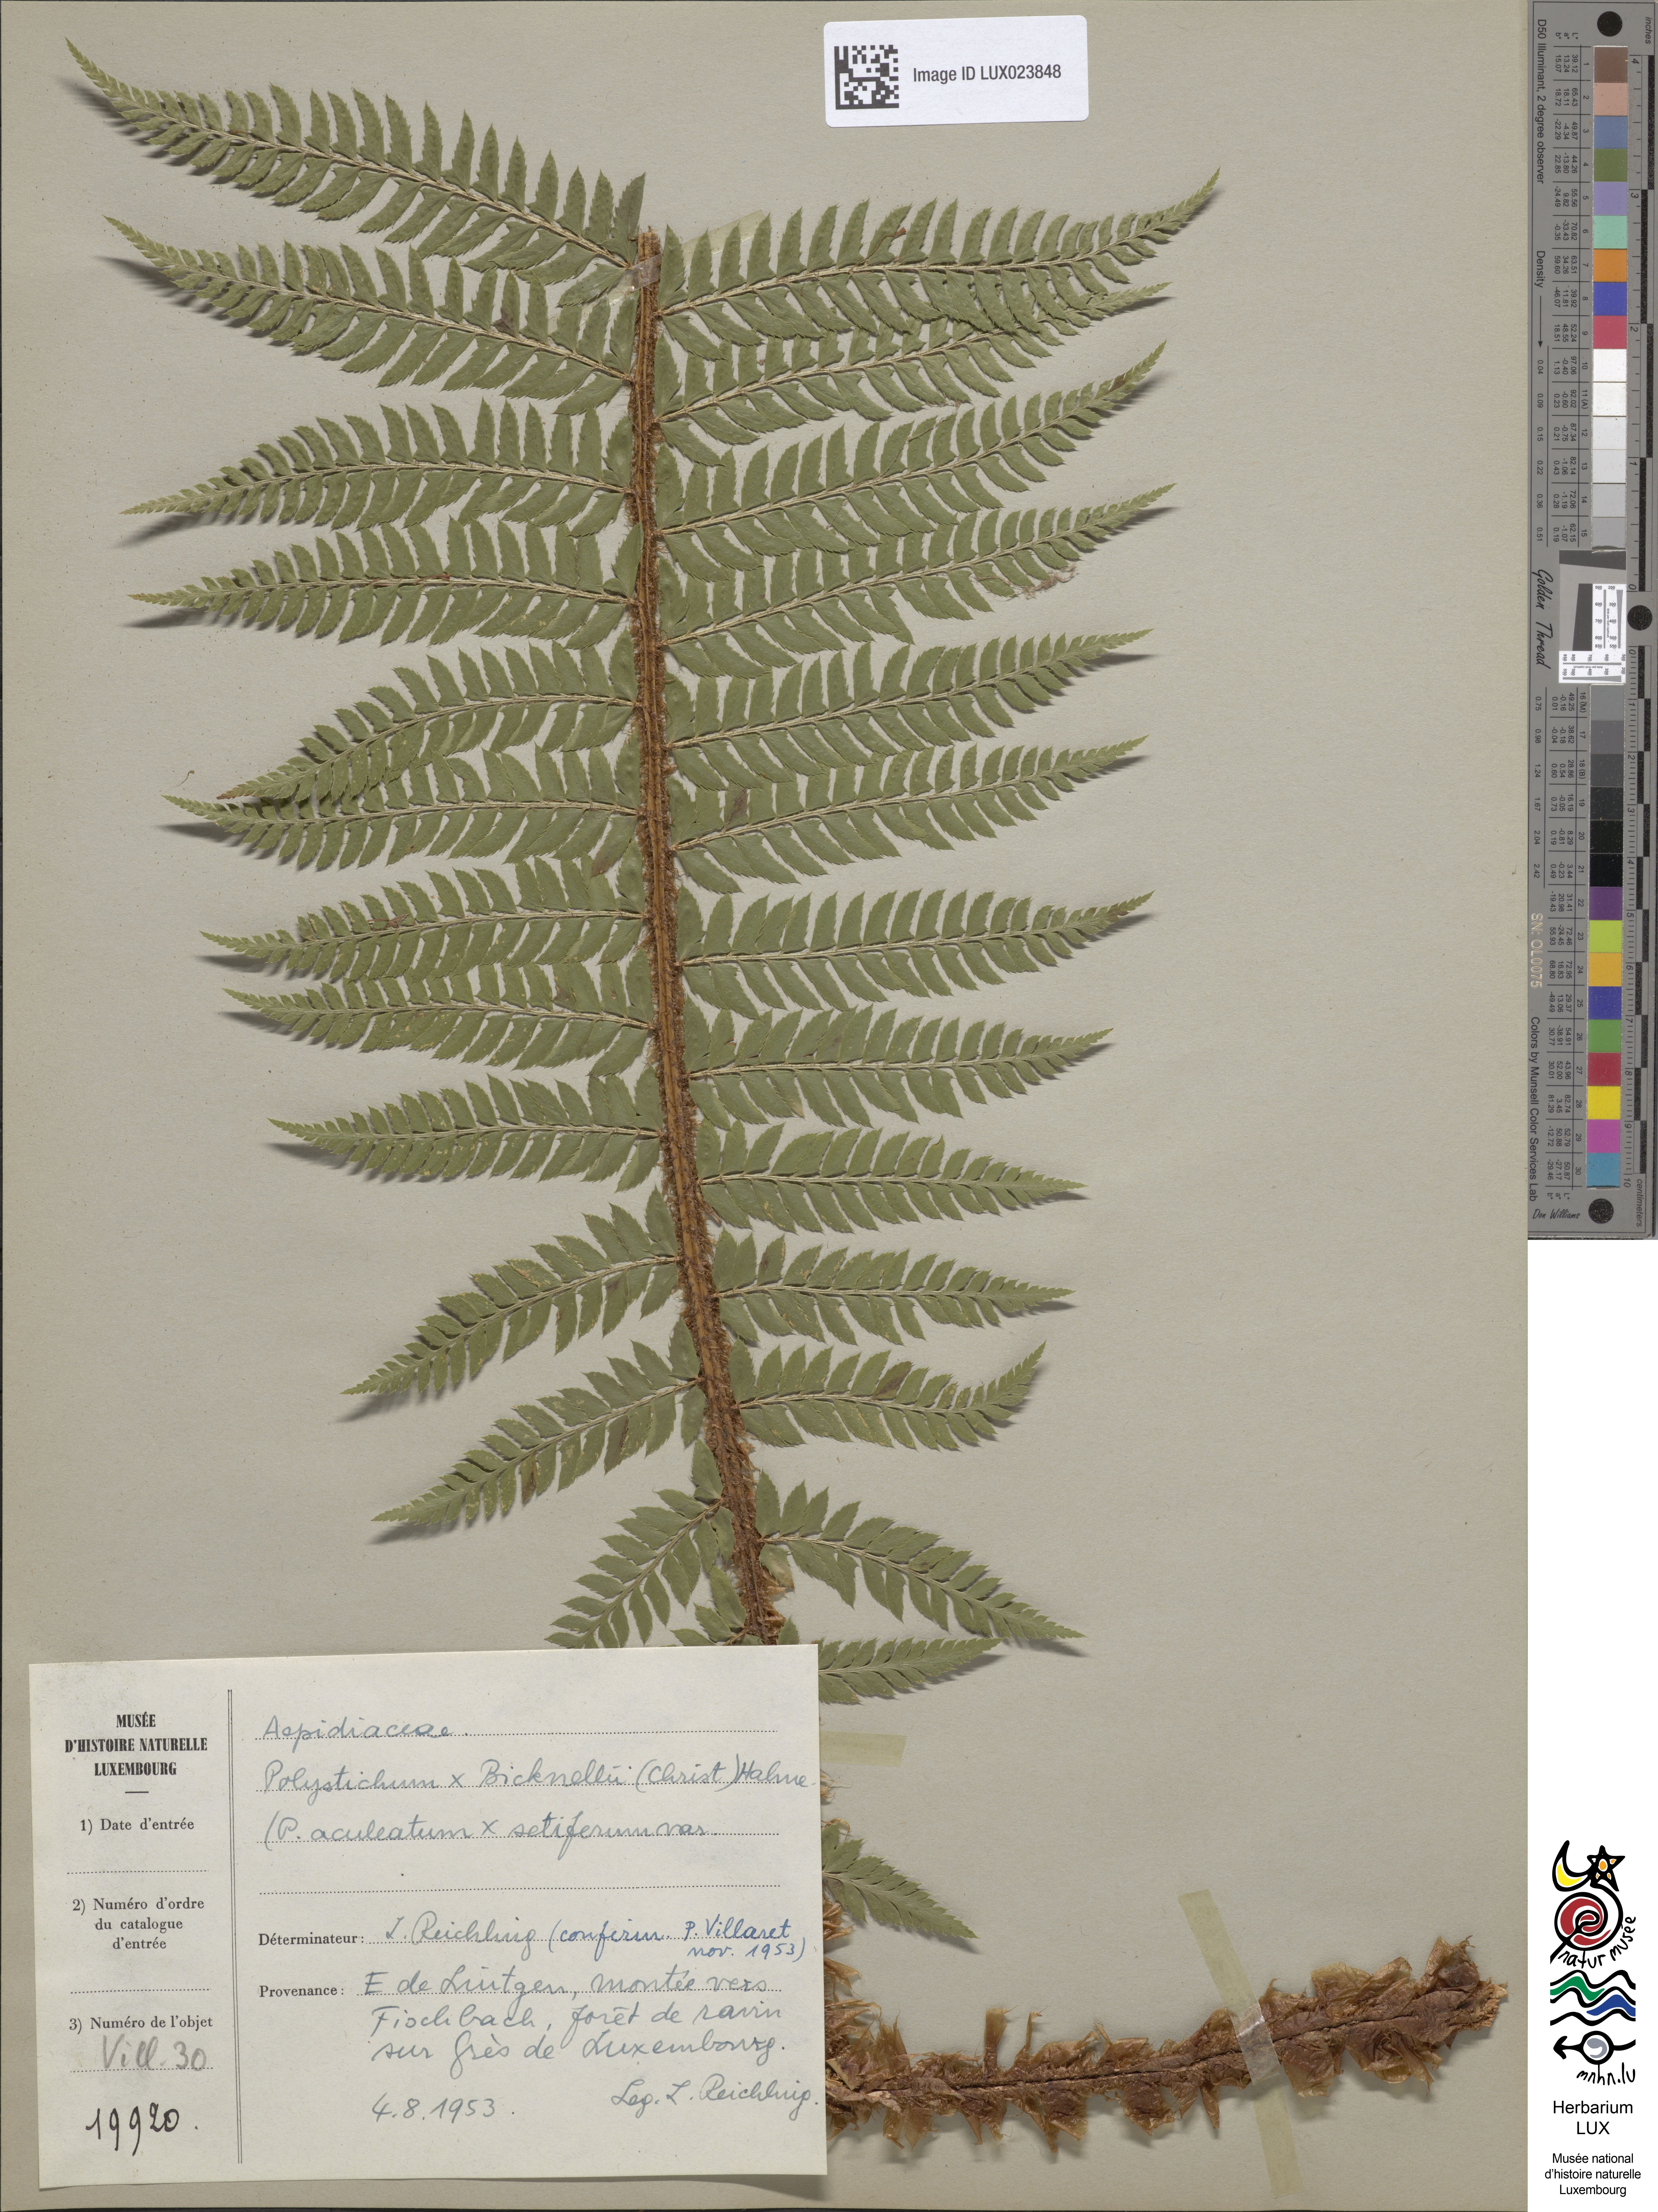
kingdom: Plantae
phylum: Tracheophyta
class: Polypodiopsida
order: Polypodiales
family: Dryopteridaceae
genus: Polystichum
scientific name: Polystichum
